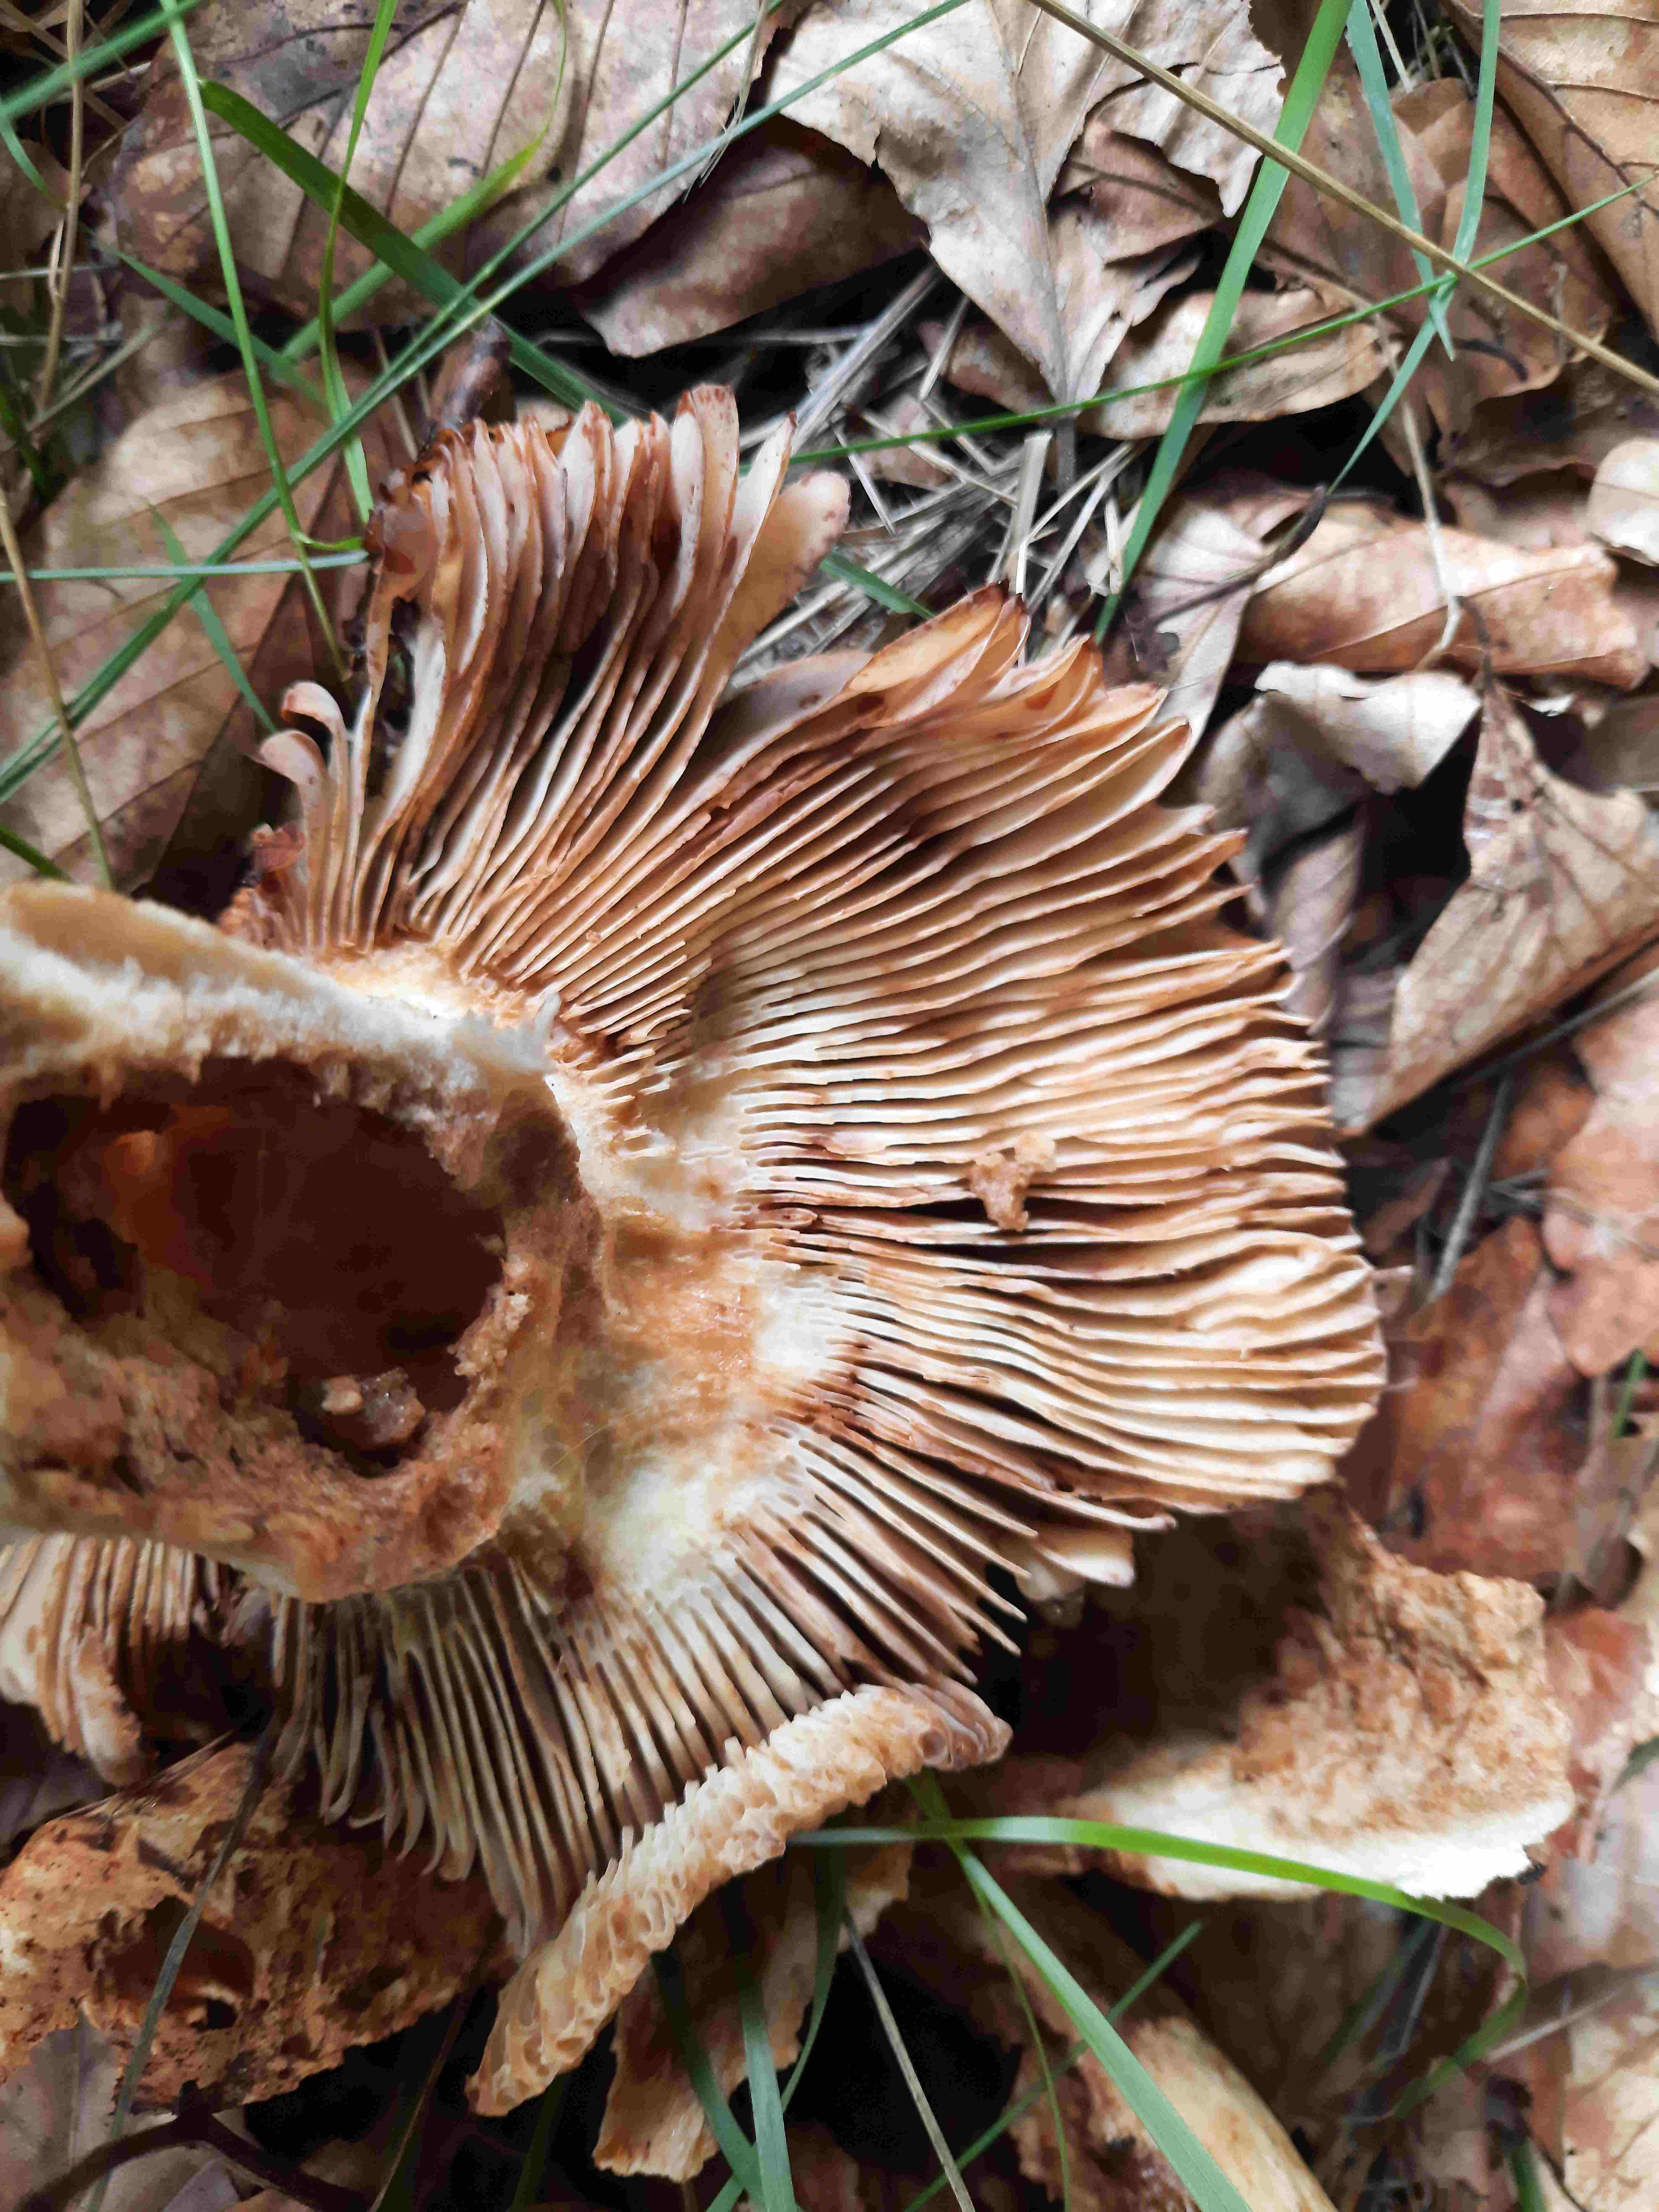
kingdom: Fungi
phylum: Basidiomycota
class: Agaricomycetes
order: Russulales
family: Russulaceae
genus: Russula
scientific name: Russula
